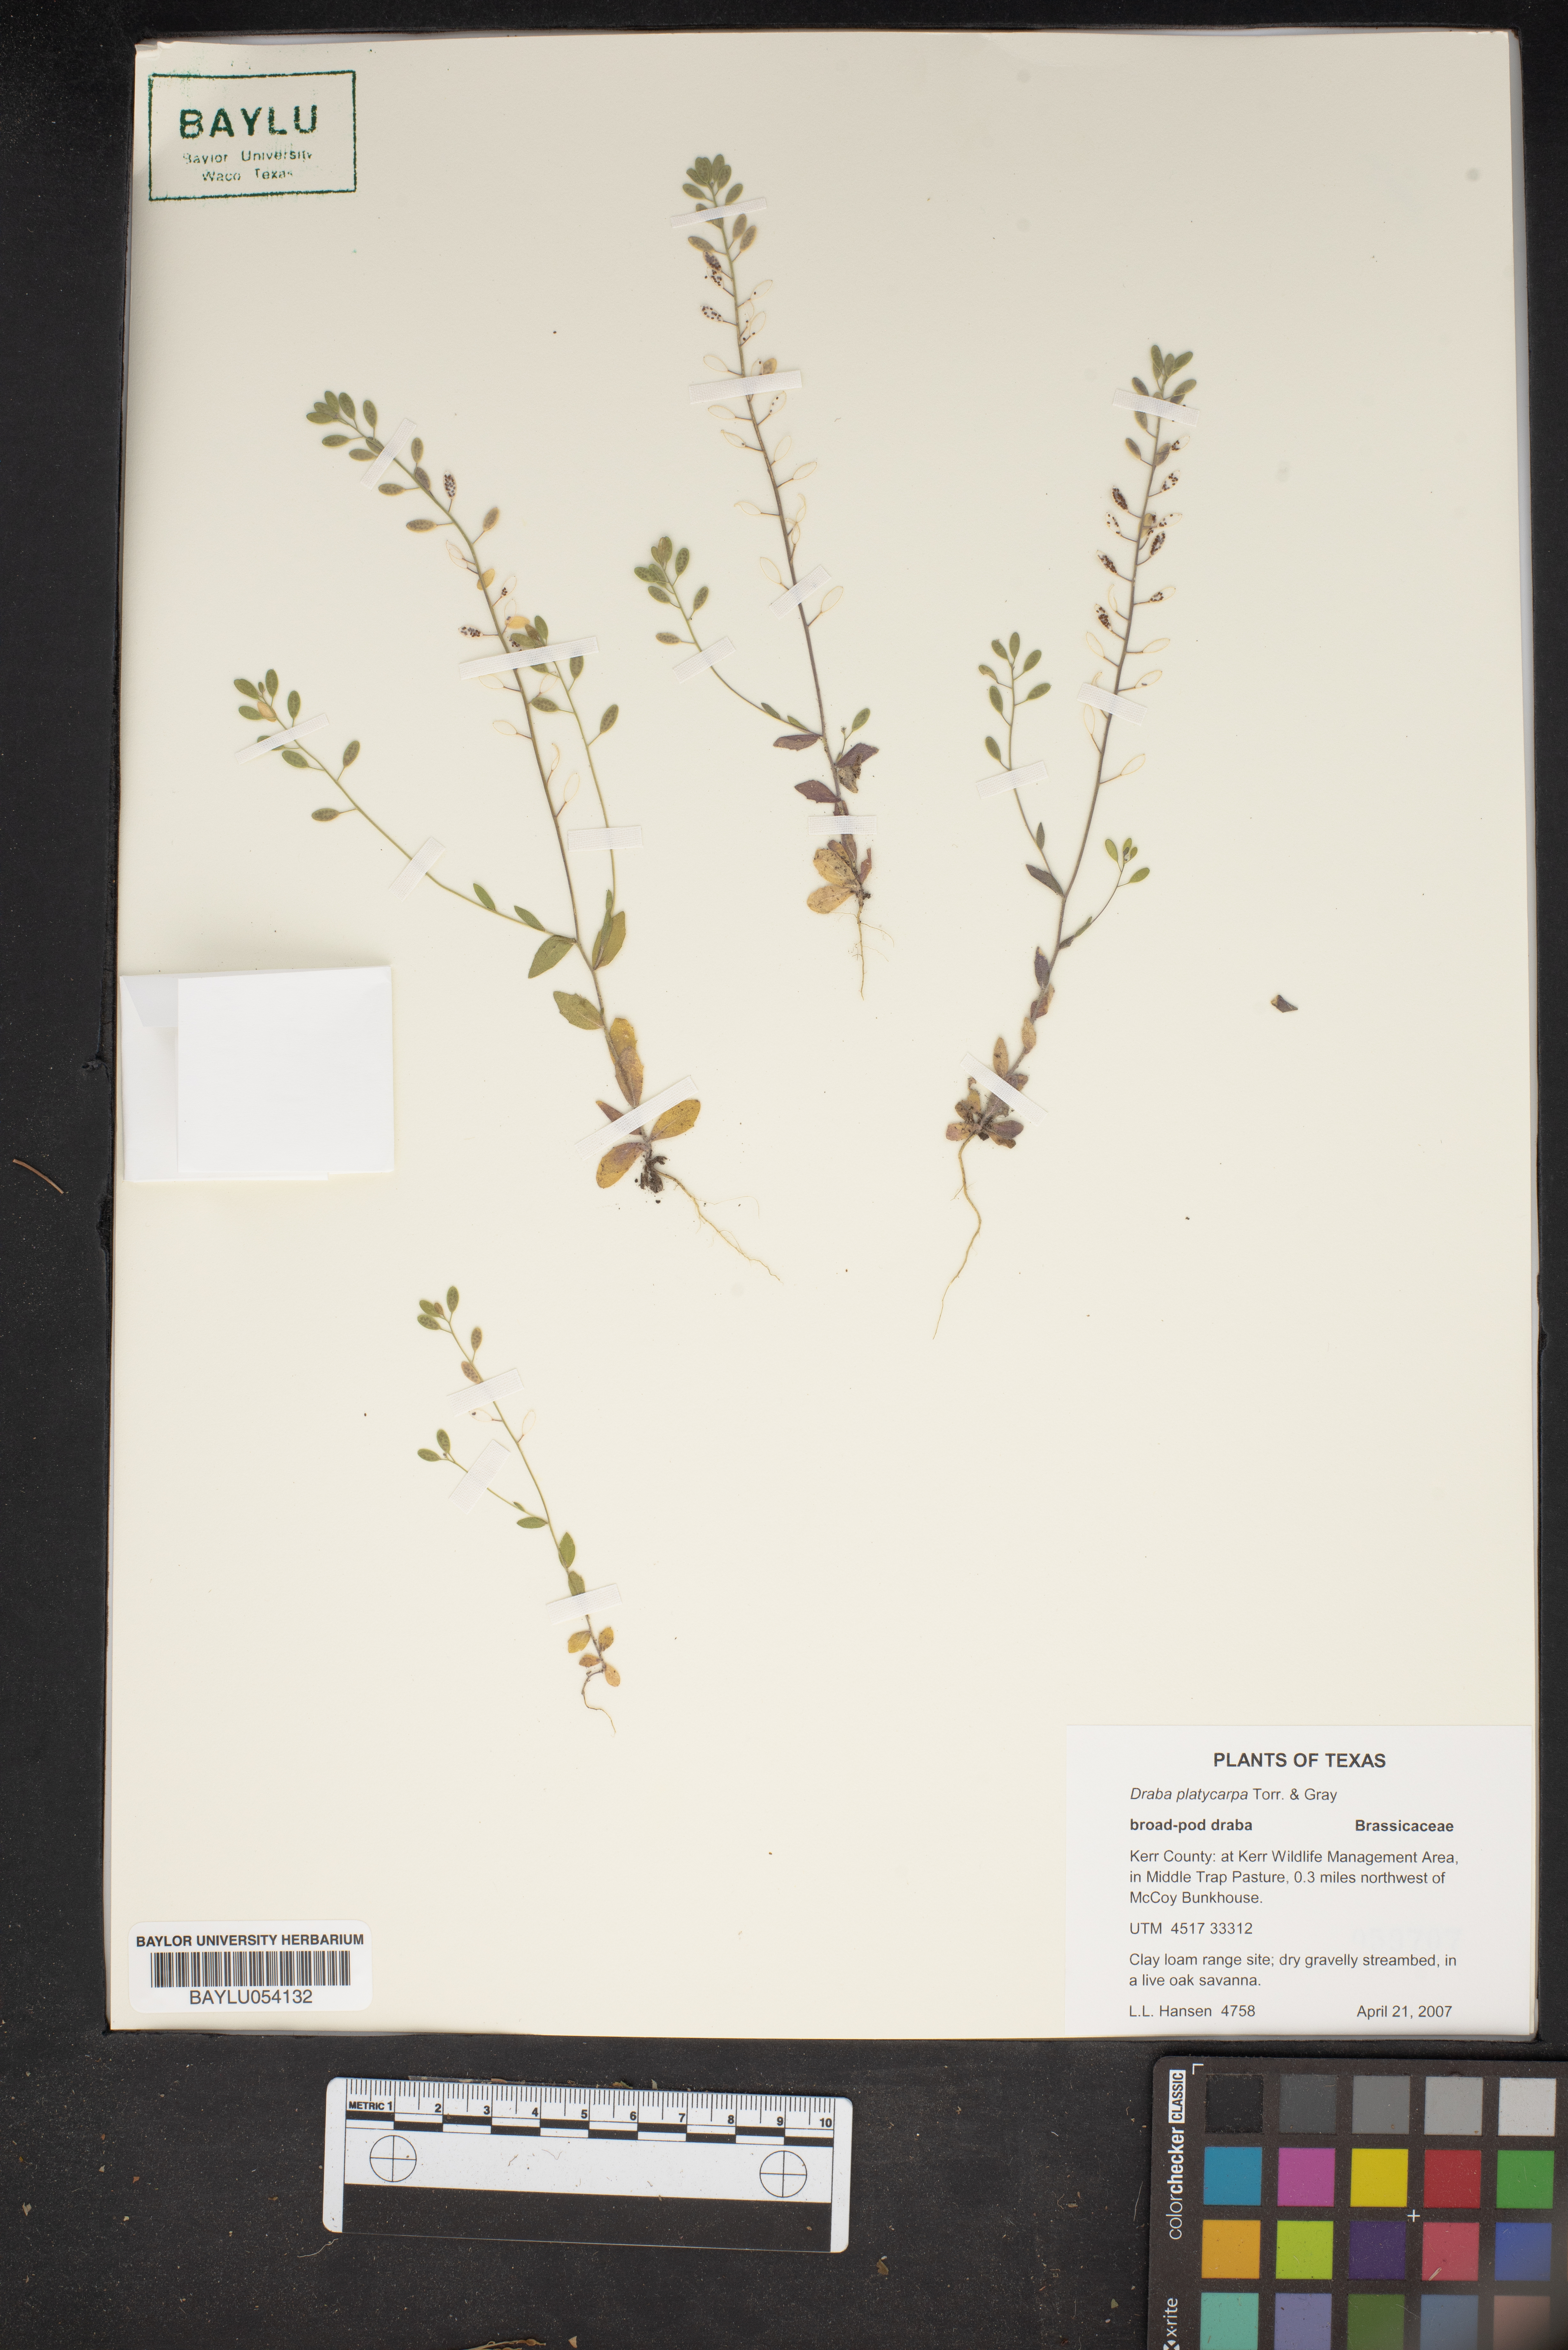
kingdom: Plantae
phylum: Tracheophyta
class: Magnoliopsida
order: Brassicales
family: Brassicaceae
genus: Tomostima
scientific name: Tomostima platycarpa
